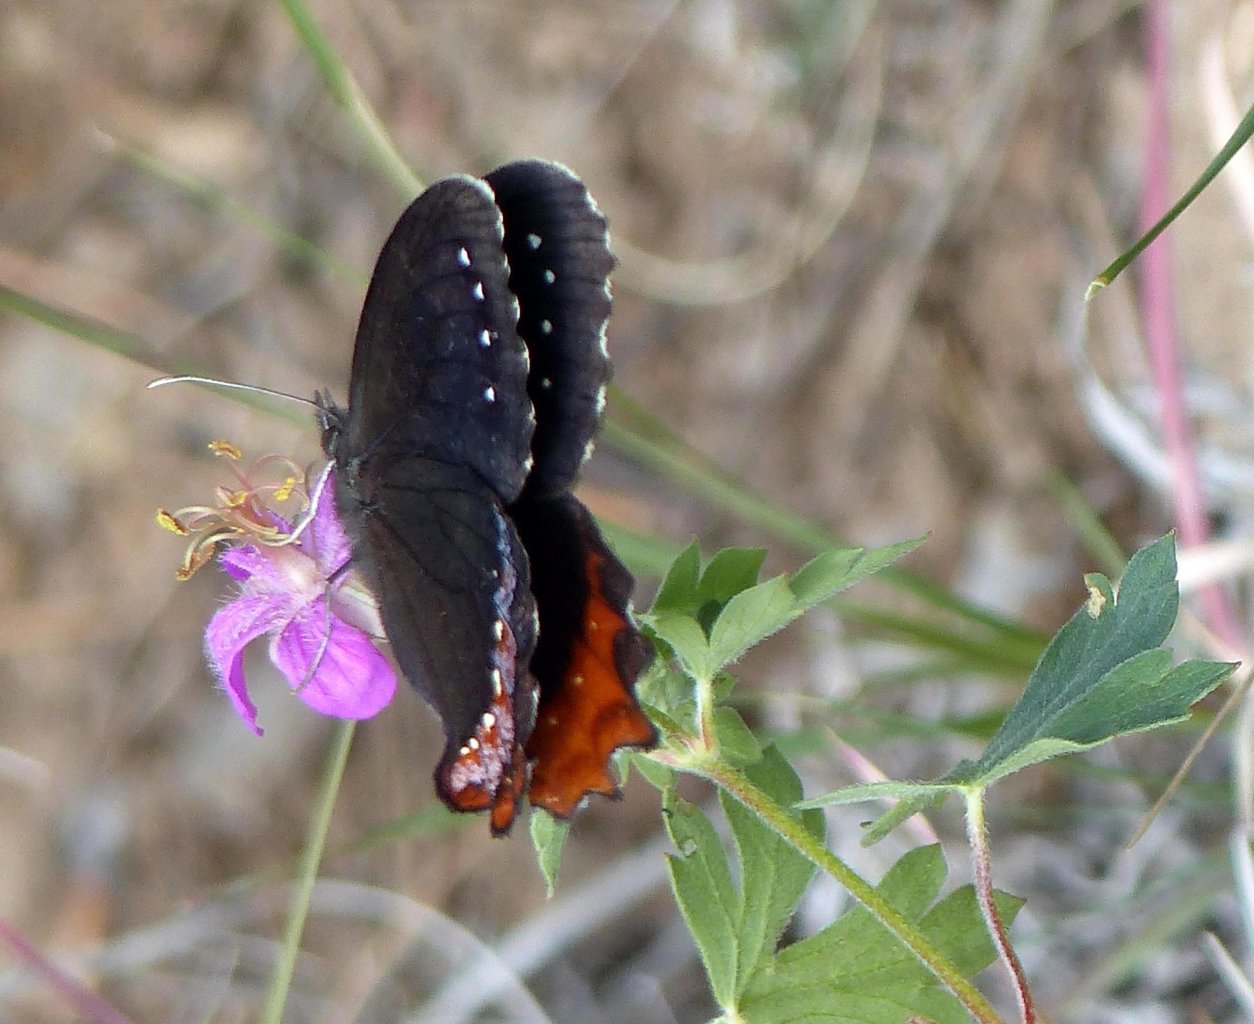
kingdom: Animalia
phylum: Arthropoda
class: Insecta
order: Lepidoptera
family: Nymphalidae
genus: Gyrocheilus
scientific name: Gyrocheilus patrobas
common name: Red-bordered Satyr
